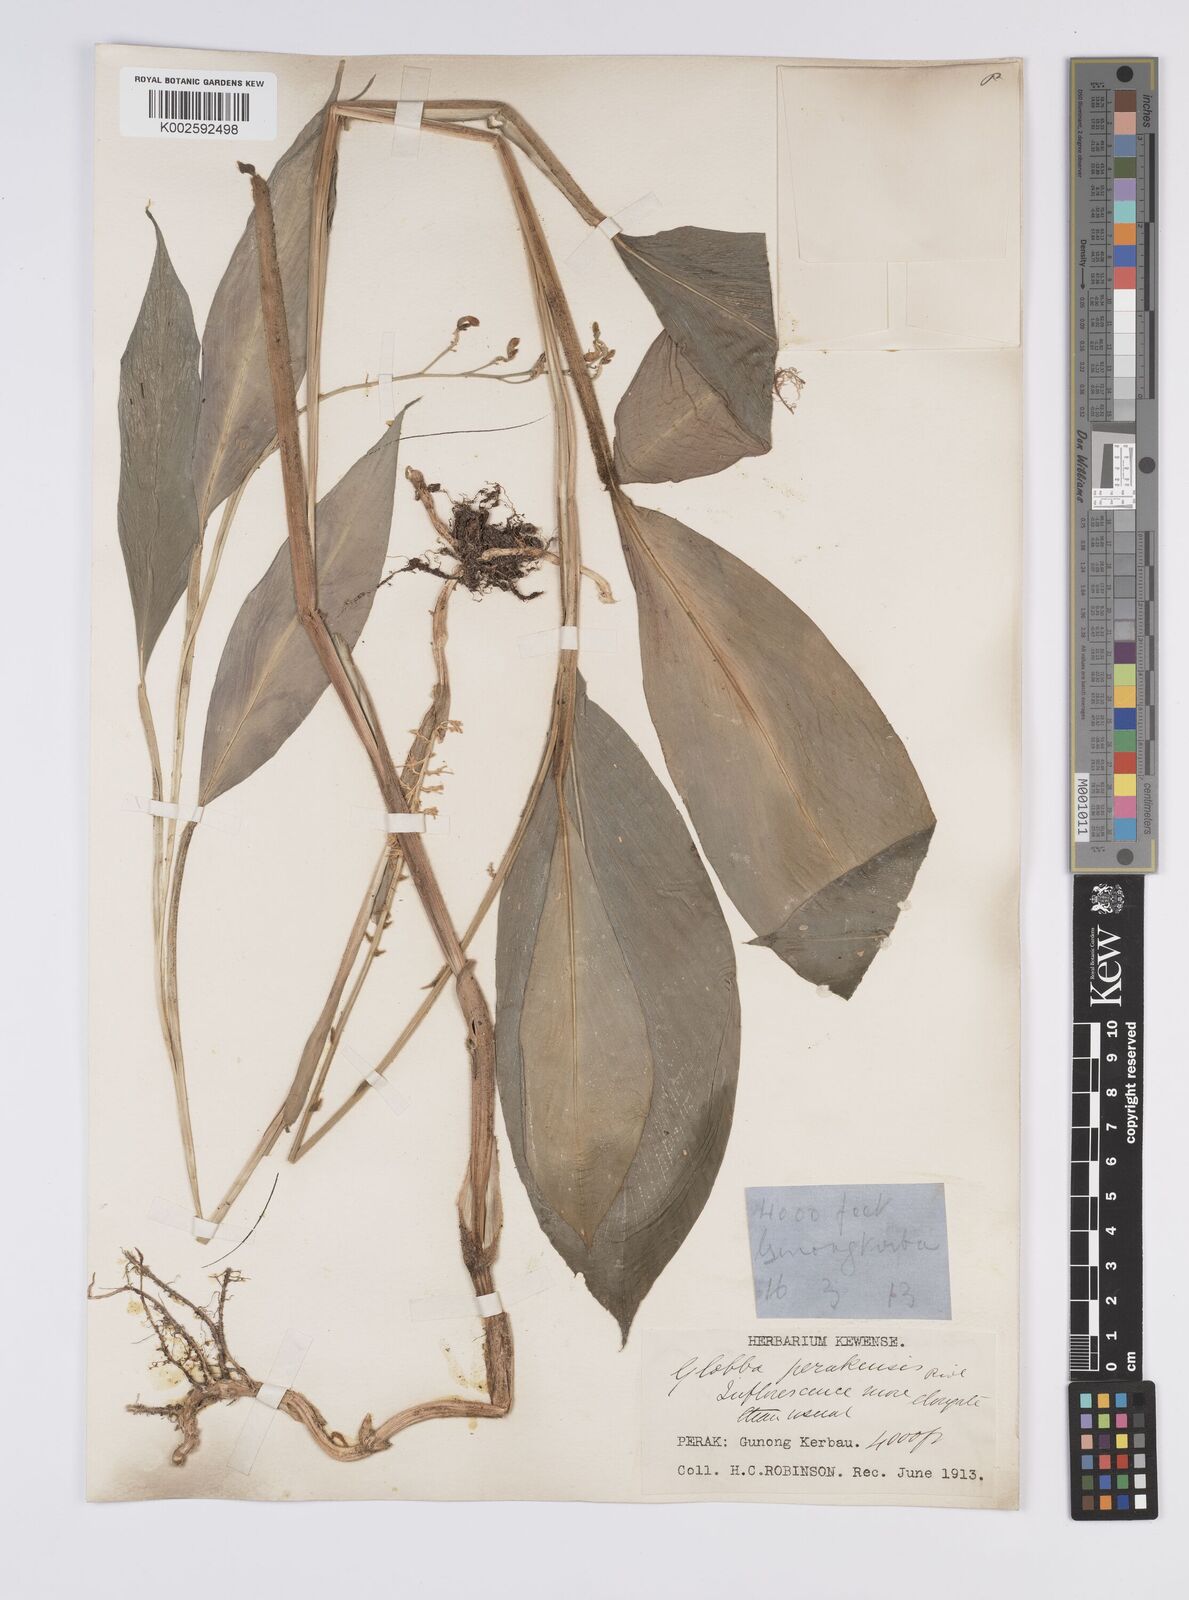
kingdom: Plantae
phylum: Tracheophyta
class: Liliopsida
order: Zingiberales
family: Zingiberaceae
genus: Globba
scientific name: Globba aurantiaca
